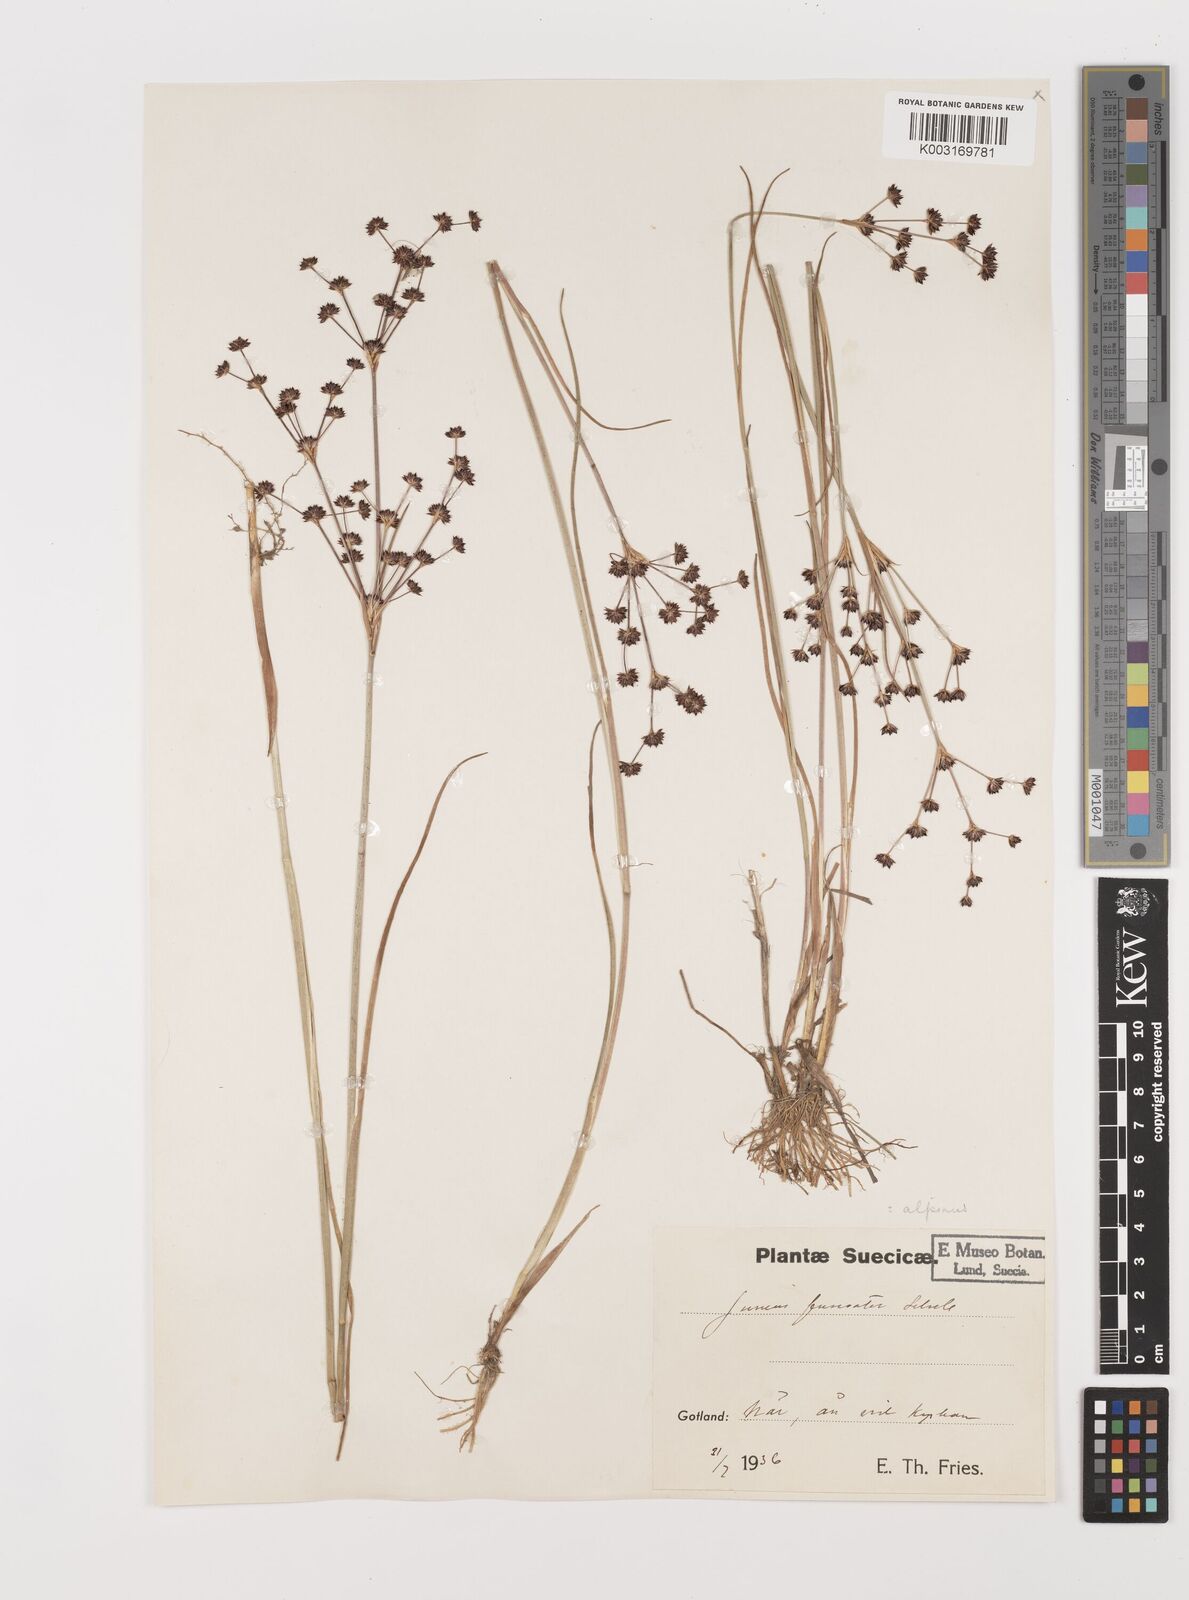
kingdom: Plantae
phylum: Tracheophyta
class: Liliopsida
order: Poales
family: Juncaceae
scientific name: Juncaceae
